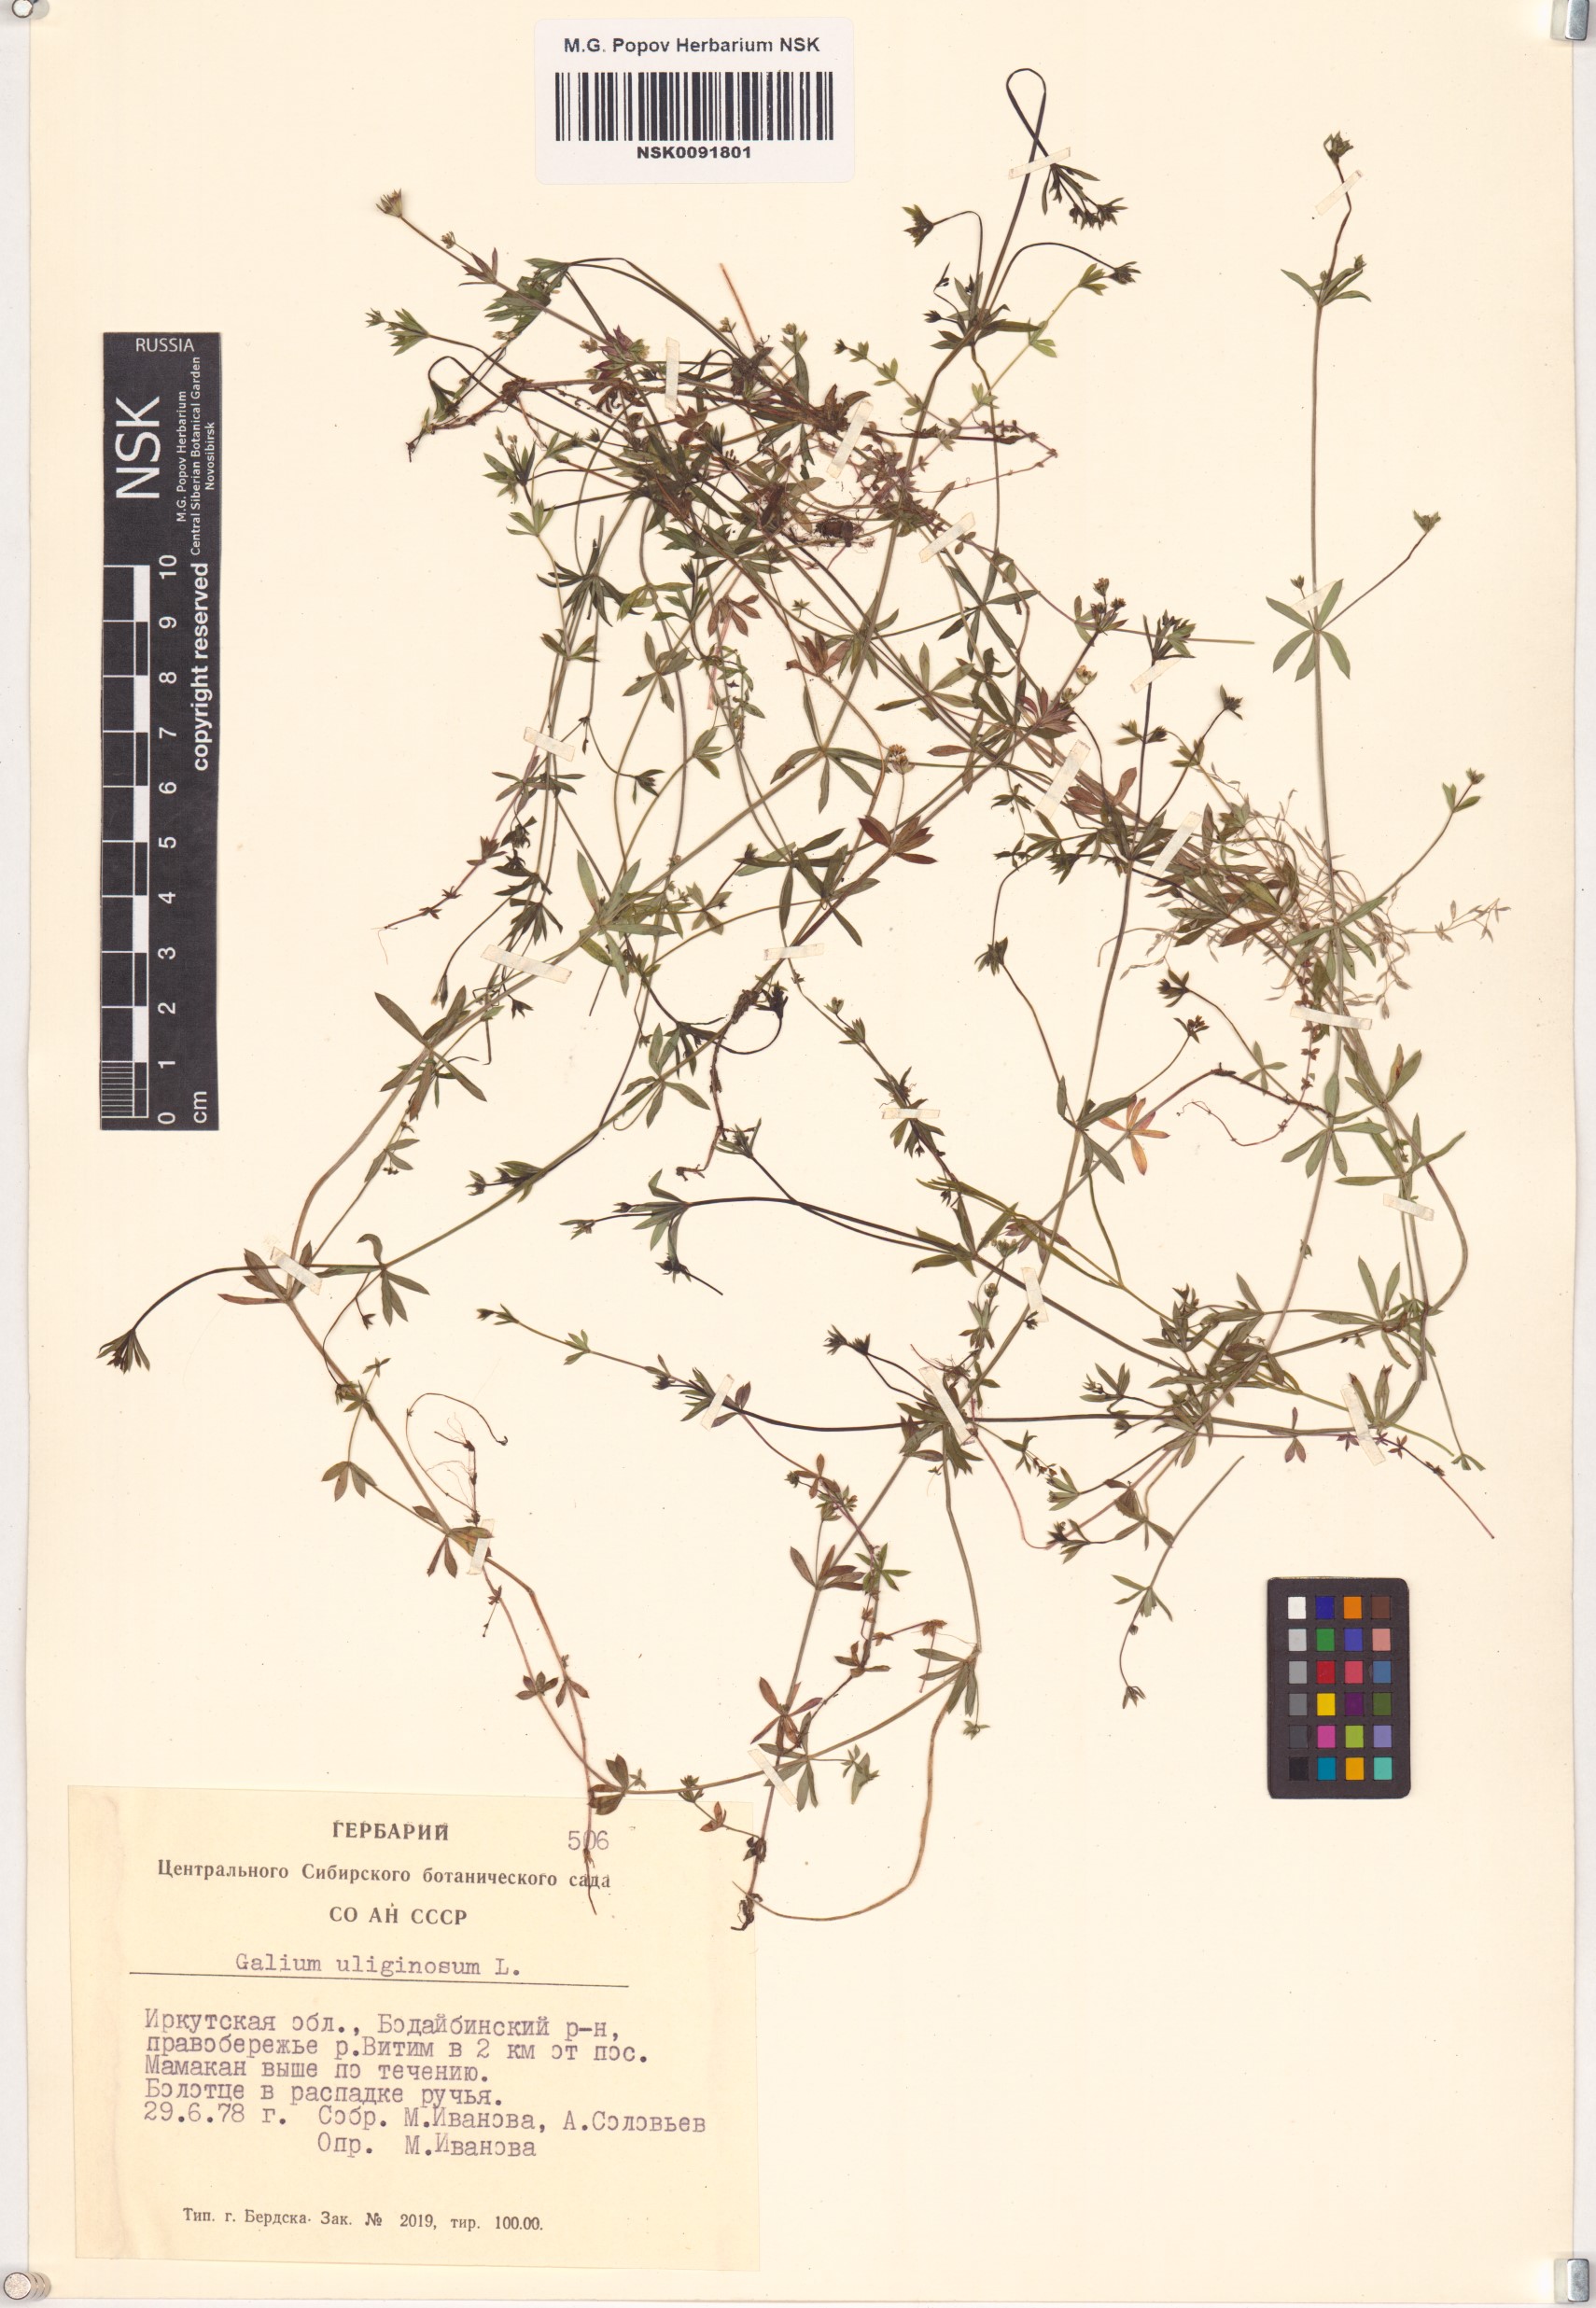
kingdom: Plantae
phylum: Tracheophyta
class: Magnoliopsida
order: Gentianales
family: Rubiaceae
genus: Galium
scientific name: Galium uliginosum
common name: Fen bedstraw
